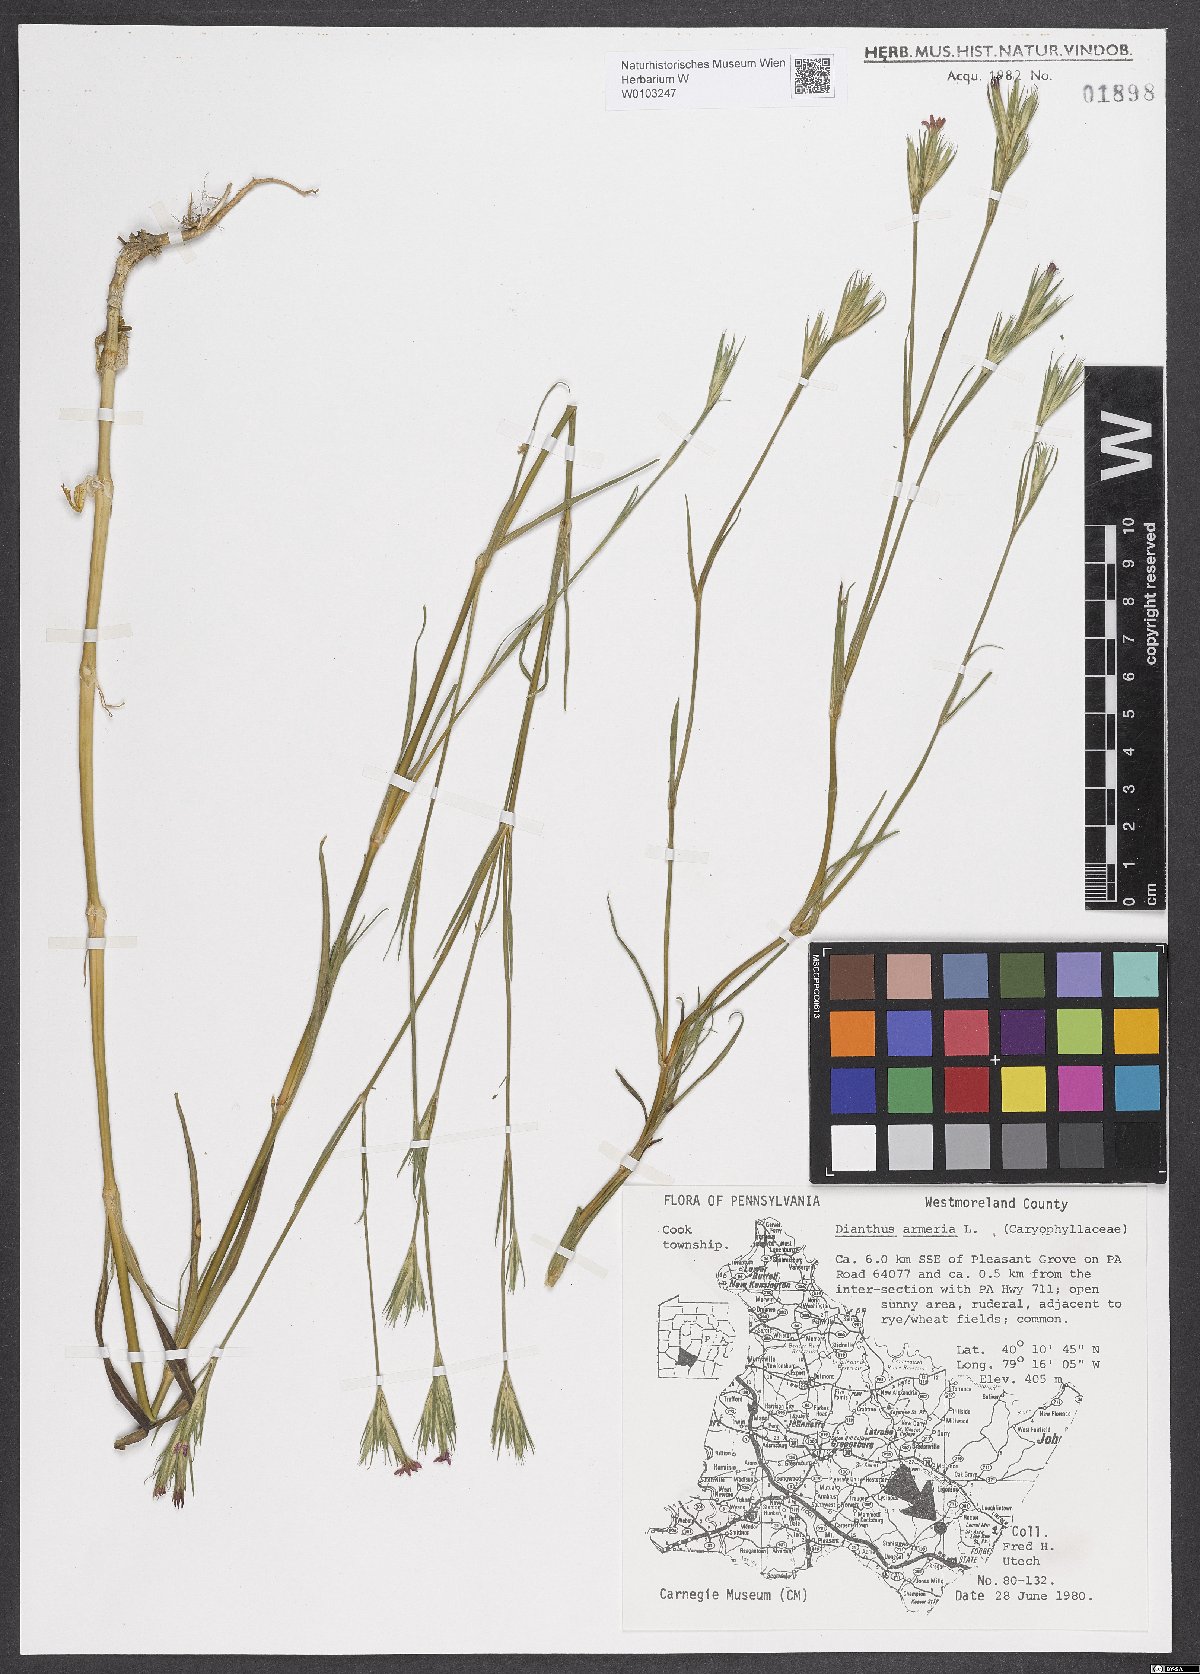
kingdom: Plantae
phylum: Tracheophyta
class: Magnoliopsida
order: Caryophyllales
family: Caryophyllaceae
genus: Dianthus
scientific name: Dianthus armeria
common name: Deptford pink
